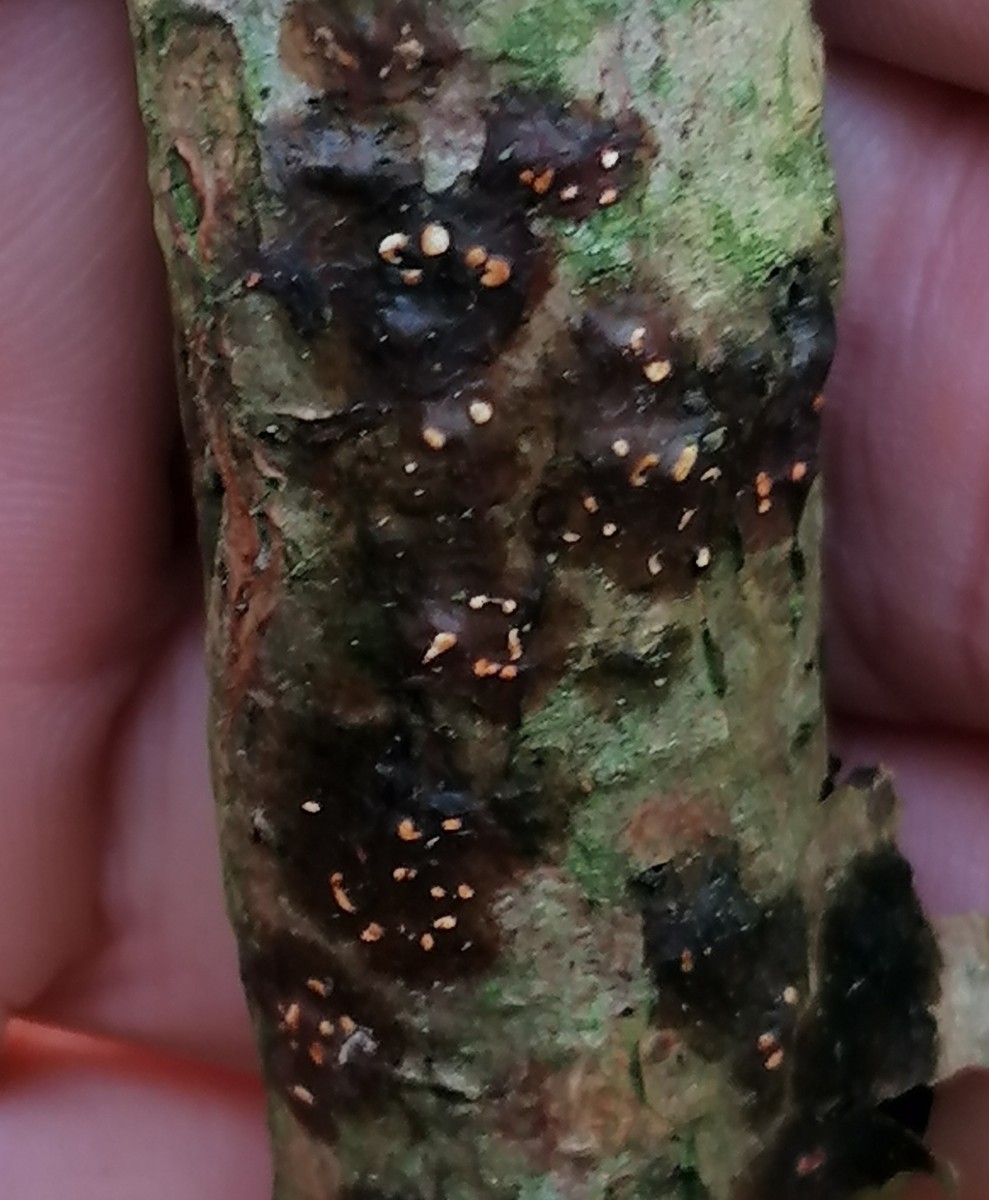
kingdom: Fungi
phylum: Basidiomycota
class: Agaricomycetes
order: Auriculariales
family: Hyaloriaceae
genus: Myxarium
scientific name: Myxarium hyalinum
